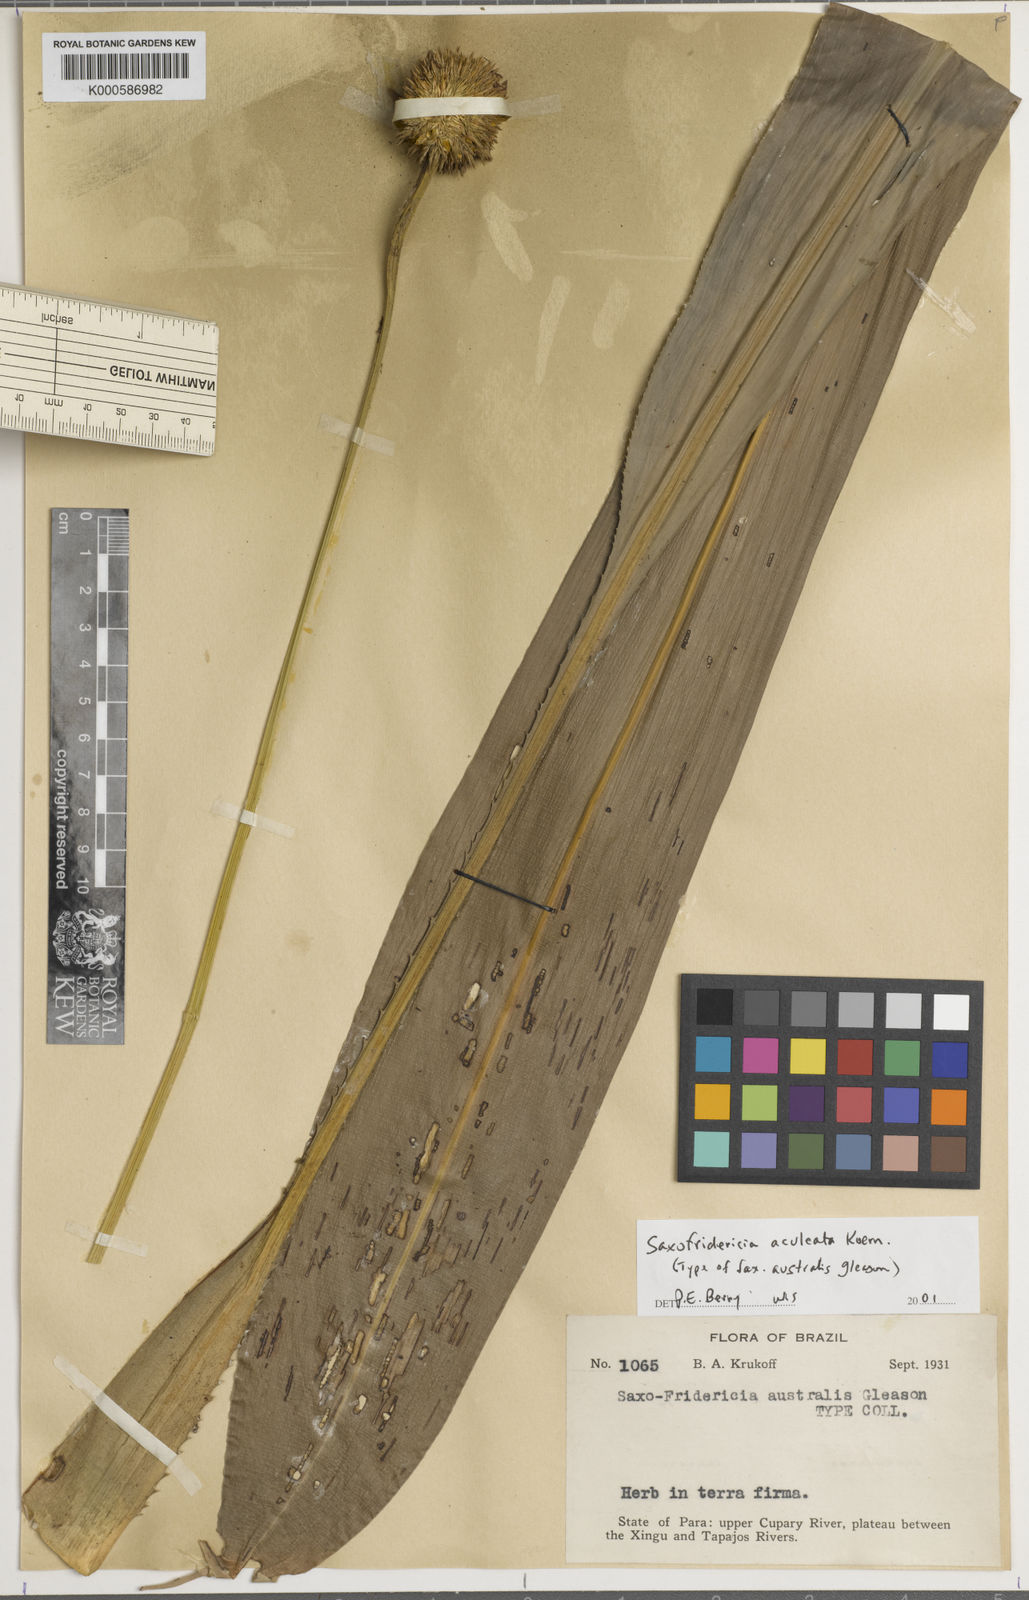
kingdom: Plantae
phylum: Tracheophyta
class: Liliopsida
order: Poales
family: Rapateaceae
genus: Saxofridericia
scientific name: Saxofridericia
